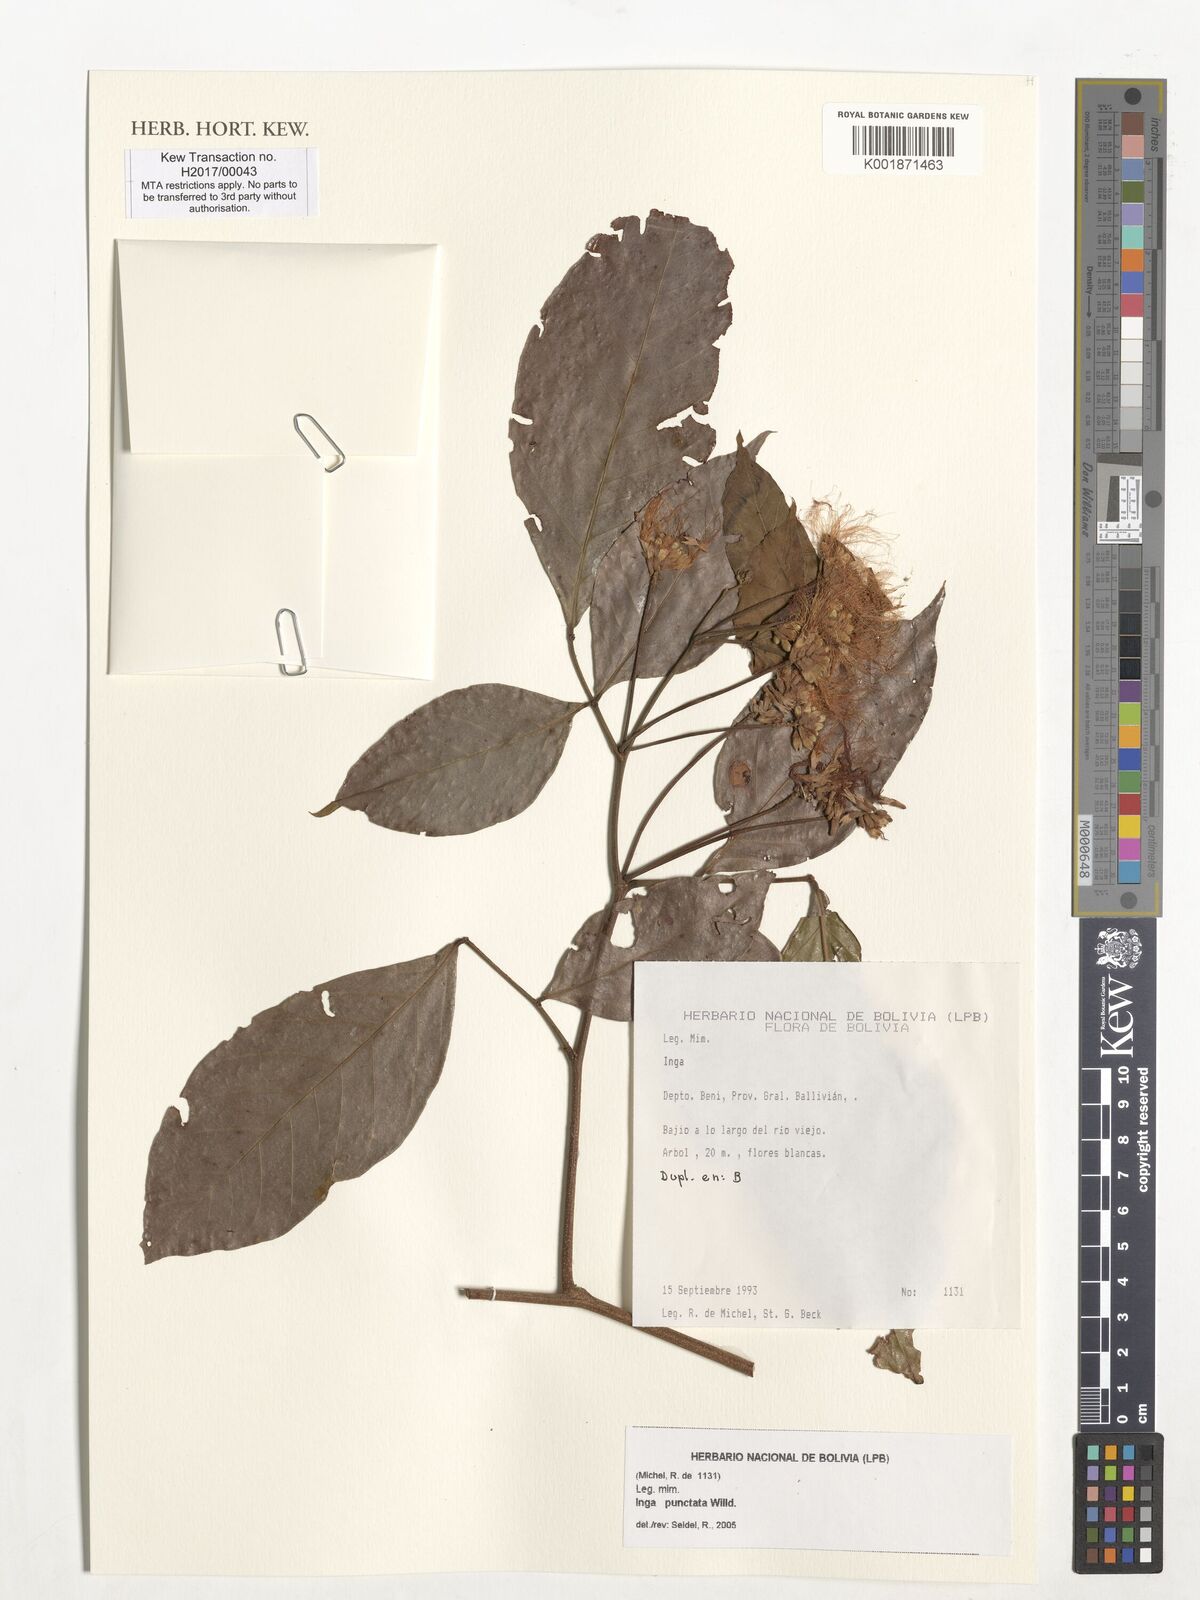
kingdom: Plantae
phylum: Tracheophyta
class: Magnoliopsida
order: Fabales
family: Fabaceae
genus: Inga
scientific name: Inga punctata
